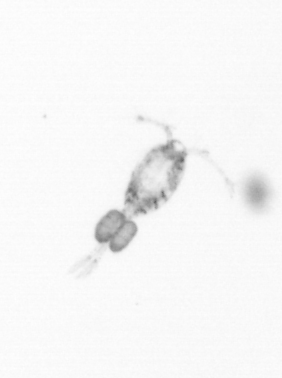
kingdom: Animalia
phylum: Arthropoda
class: Copepoda
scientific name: Copepoda
